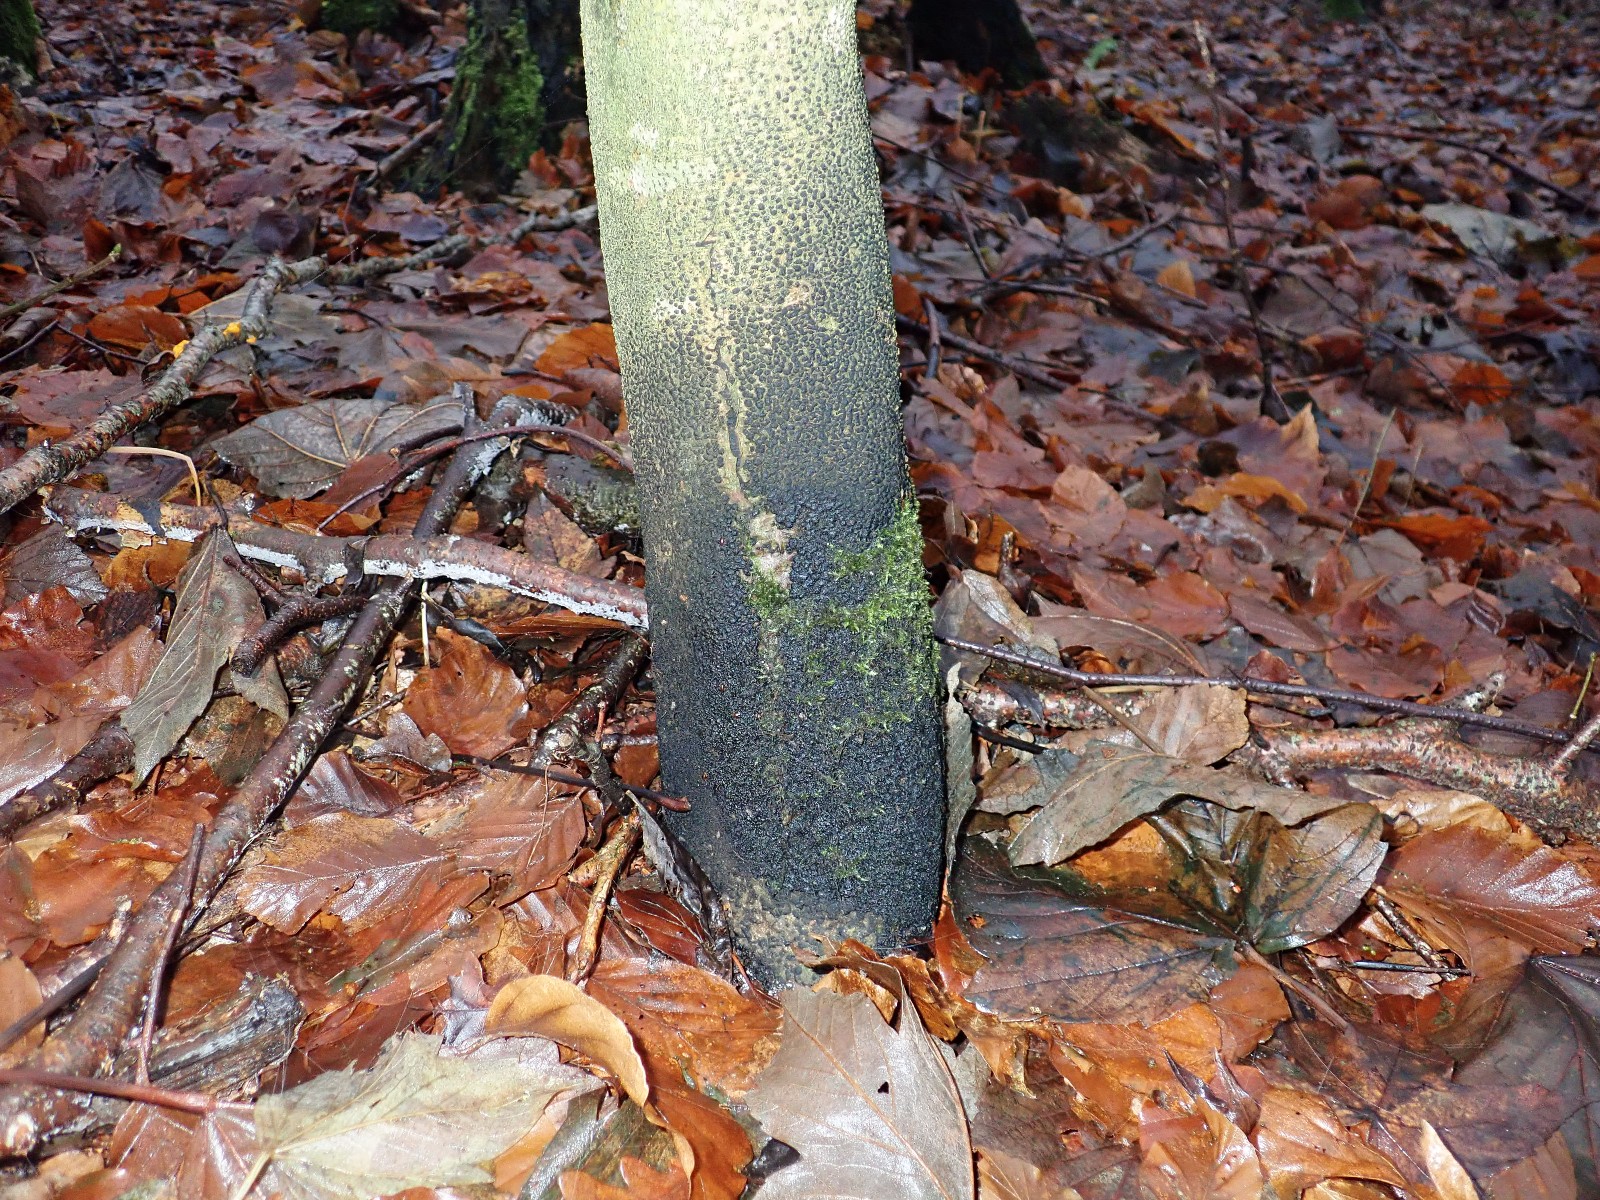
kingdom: Fungi
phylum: Ascomycota
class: Sordariomycetes
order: Xylariales
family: Melogrammataceae
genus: Melogramma
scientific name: Melogramma spiniferum
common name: bøgefod-kulhals
